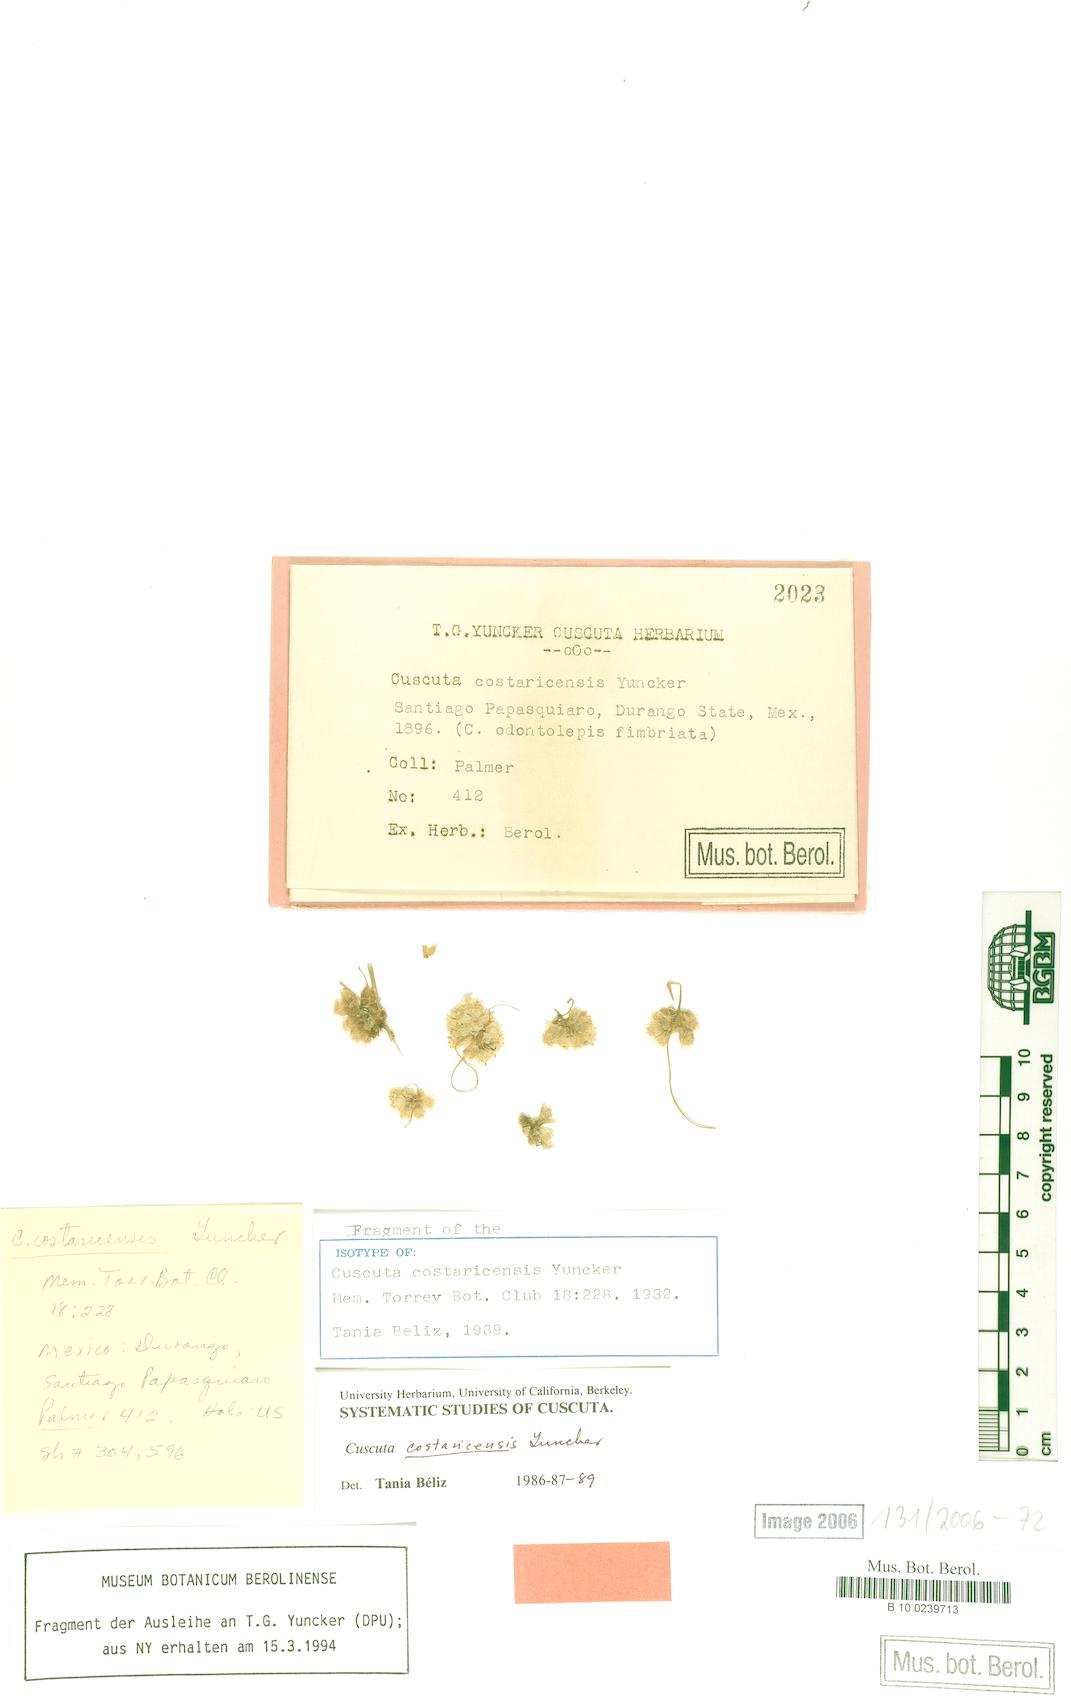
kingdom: Plantae
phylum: Tracheophyta
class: Magnoliopsida
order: Solanales
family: Convolvulaceae
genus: Cuscuta
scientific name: Cuscuta costaricensis
